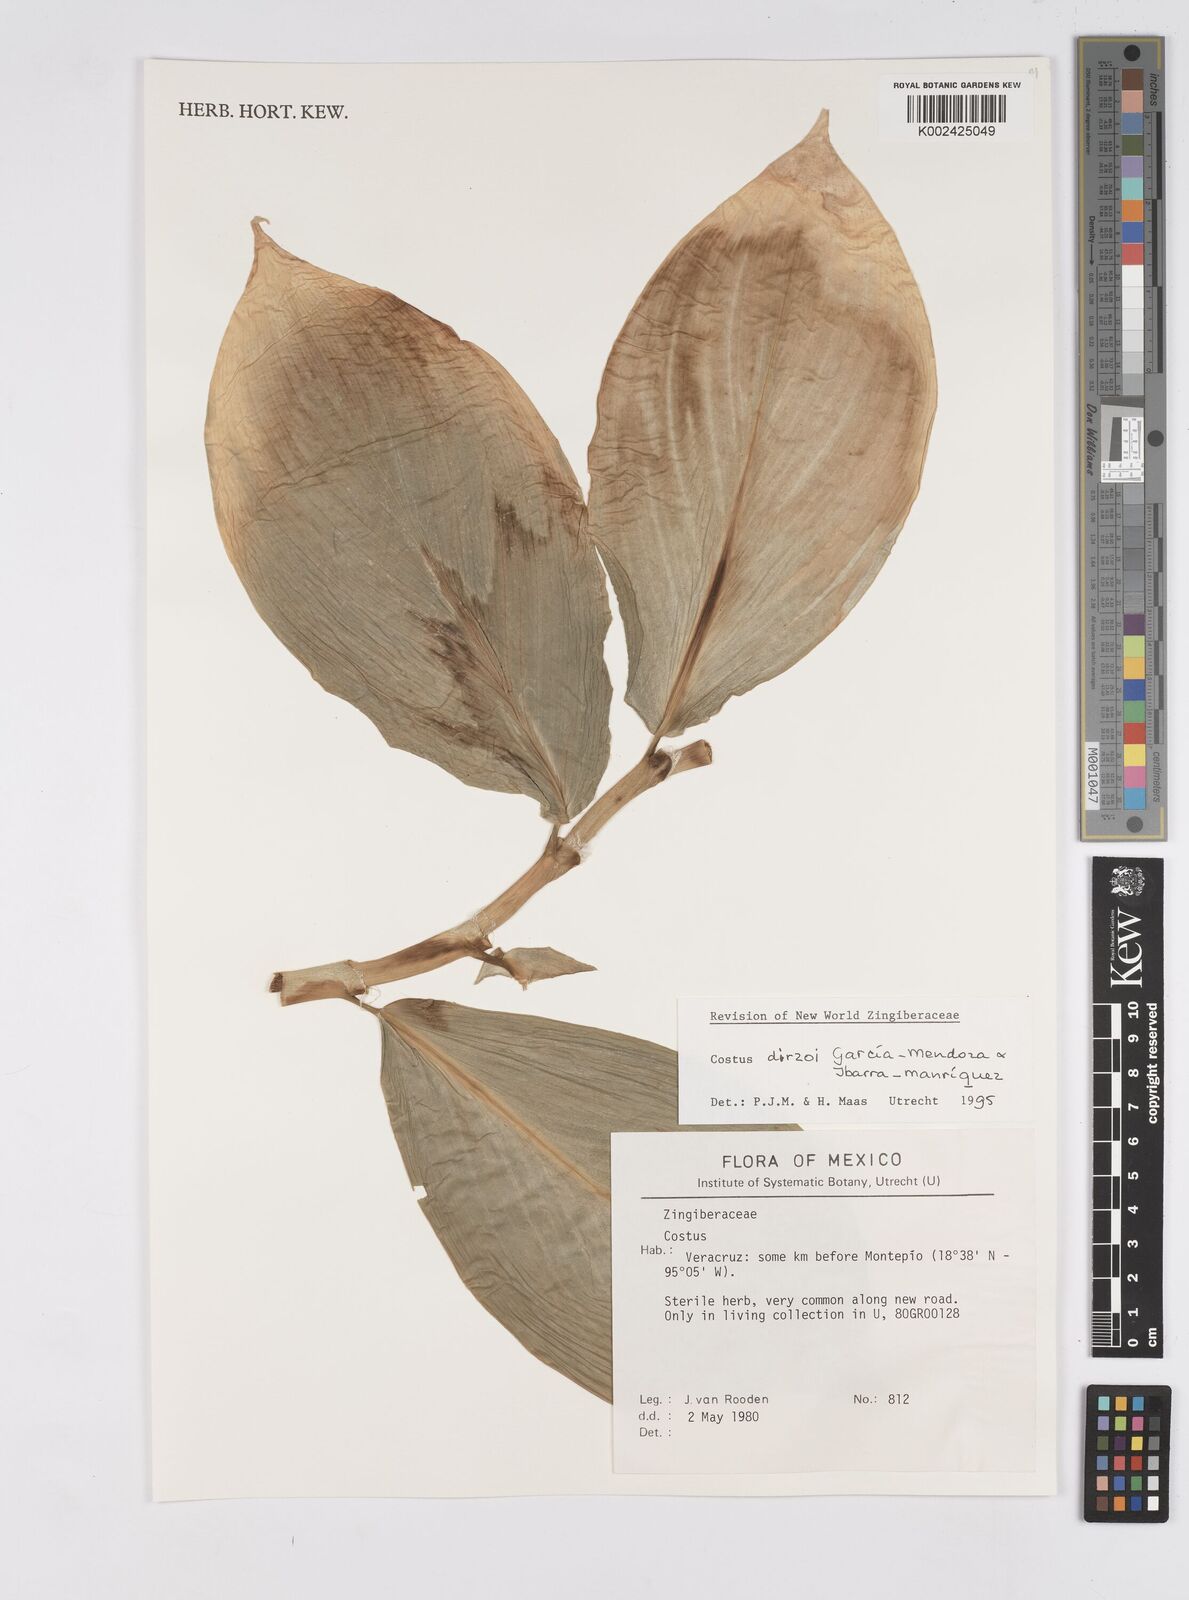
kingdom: Plantae
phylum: Tracheophyta
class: Liliopsida
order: Zingiberales
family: Costaceae
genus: Costus
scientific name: Costus dirzoi
